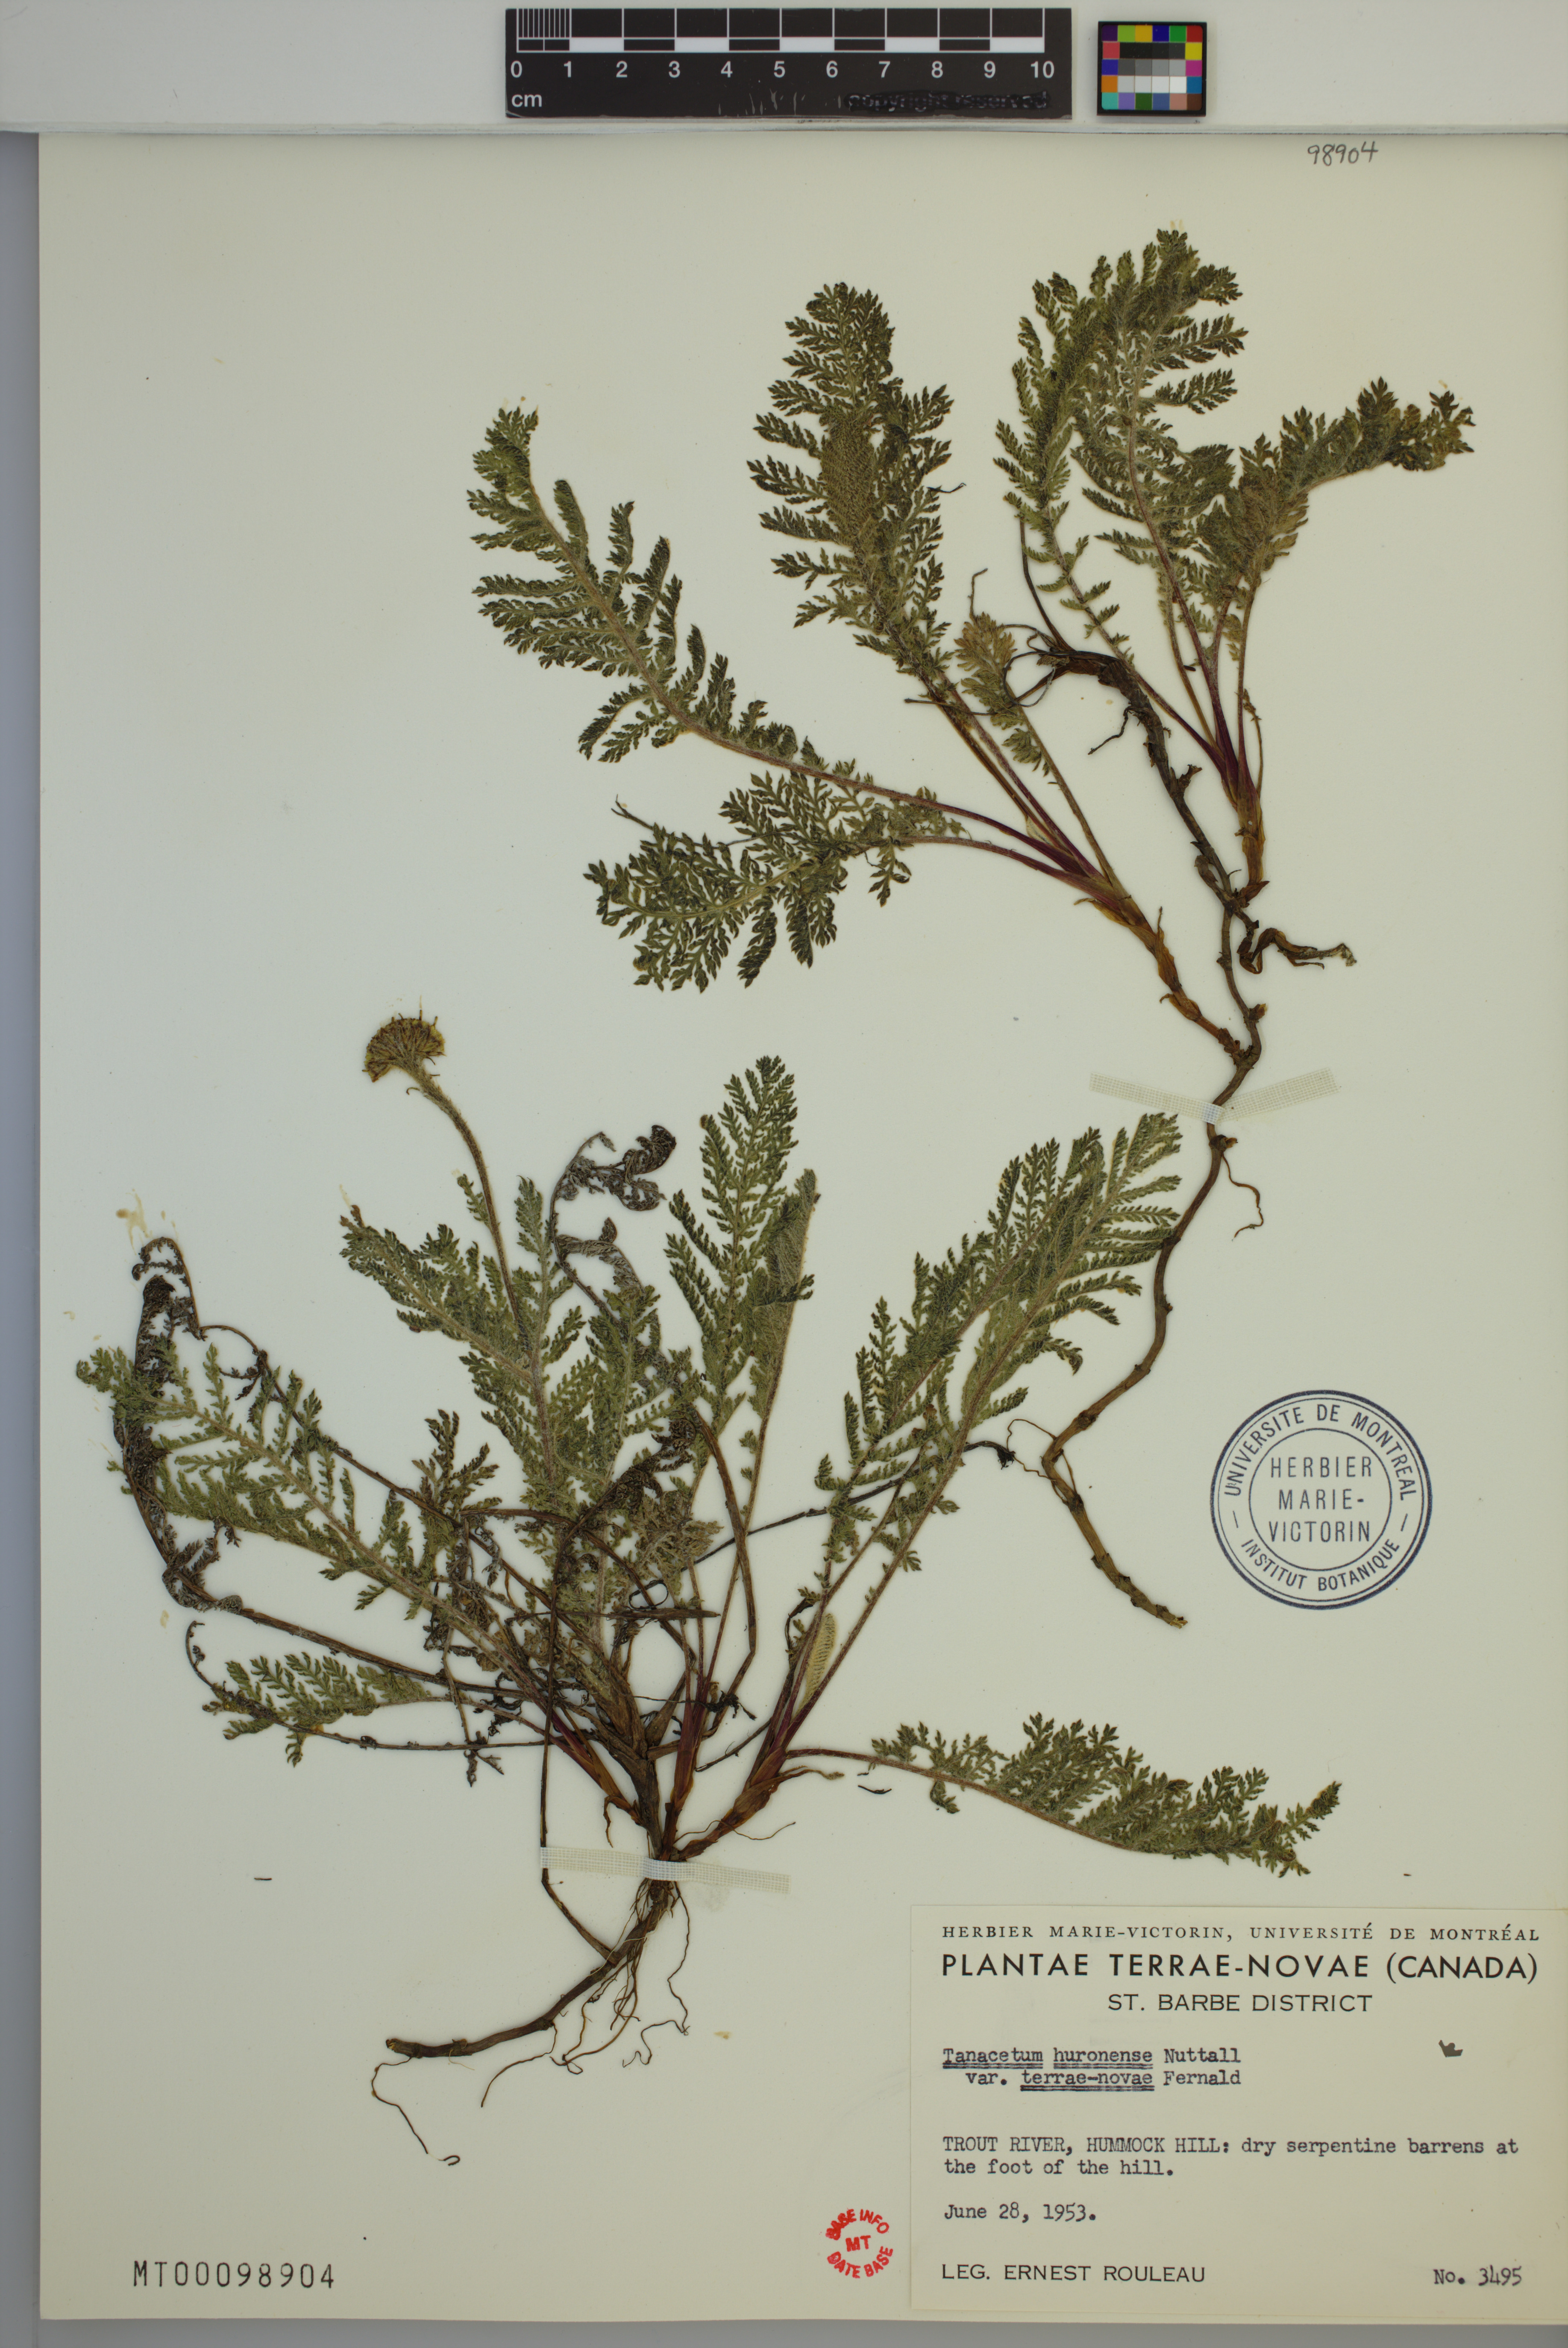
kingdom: Plantae
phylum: Tracheophyta
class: Magnoliopsida
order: Asterales
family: Asteraceae
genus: Tanacetum
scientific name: Tanacetum bipinnatum
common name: Dwarf tansy
